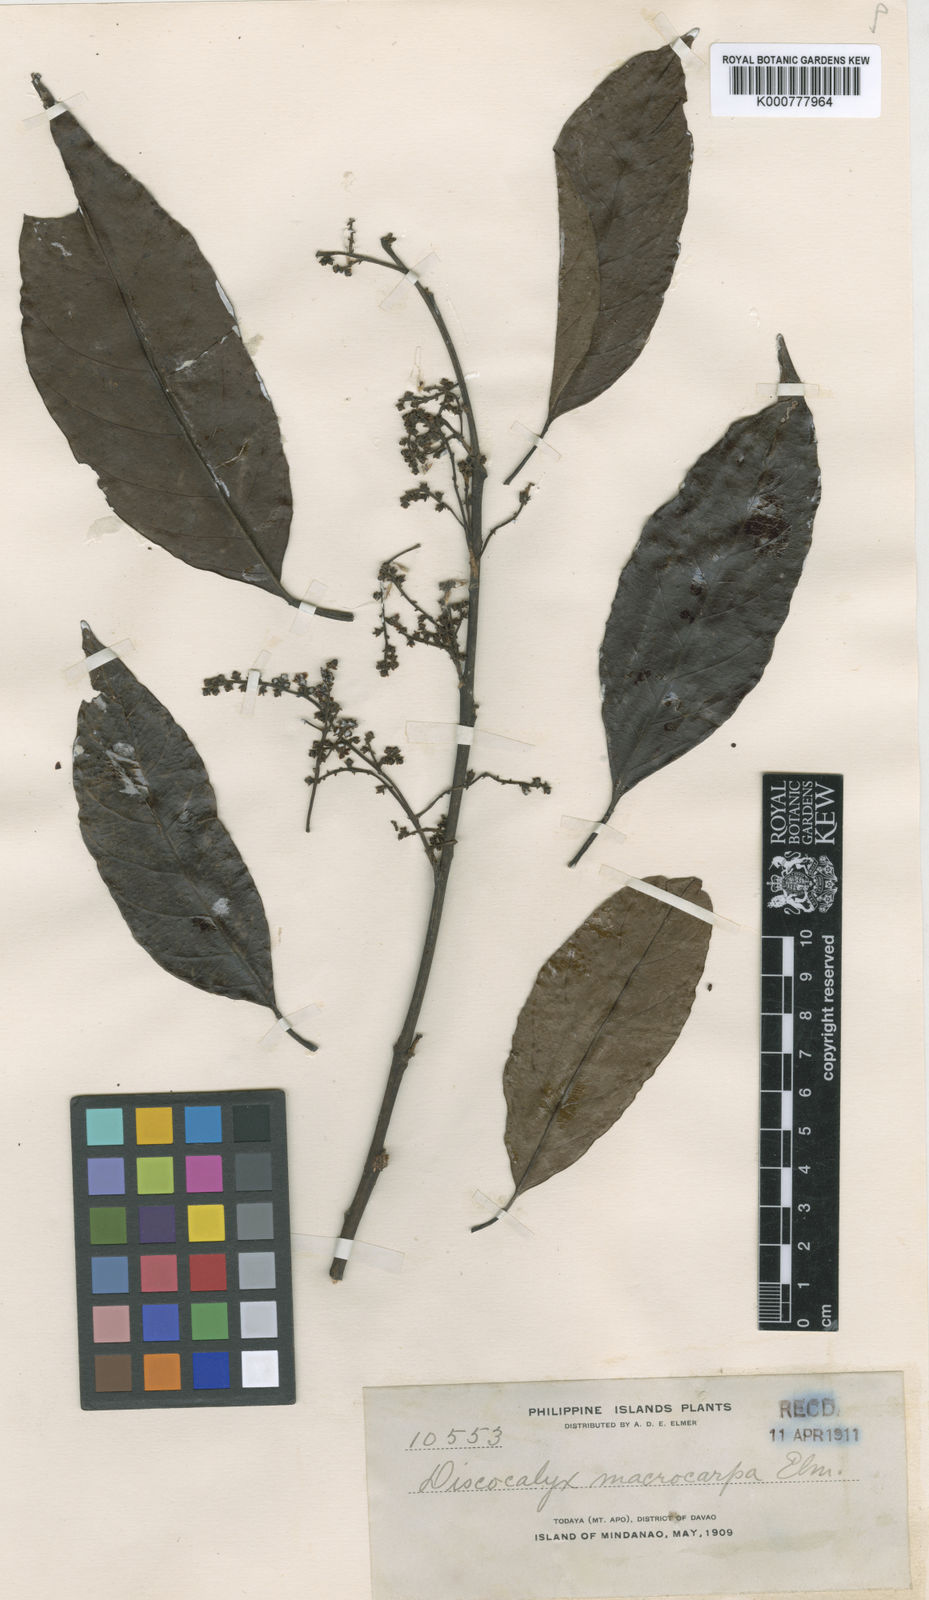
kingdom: Plantae
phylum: Tracheophyta
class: Magnoliopsida
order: Ericales
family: Sapotaceae
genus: Sarcosperma
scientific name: Sarcosperma
